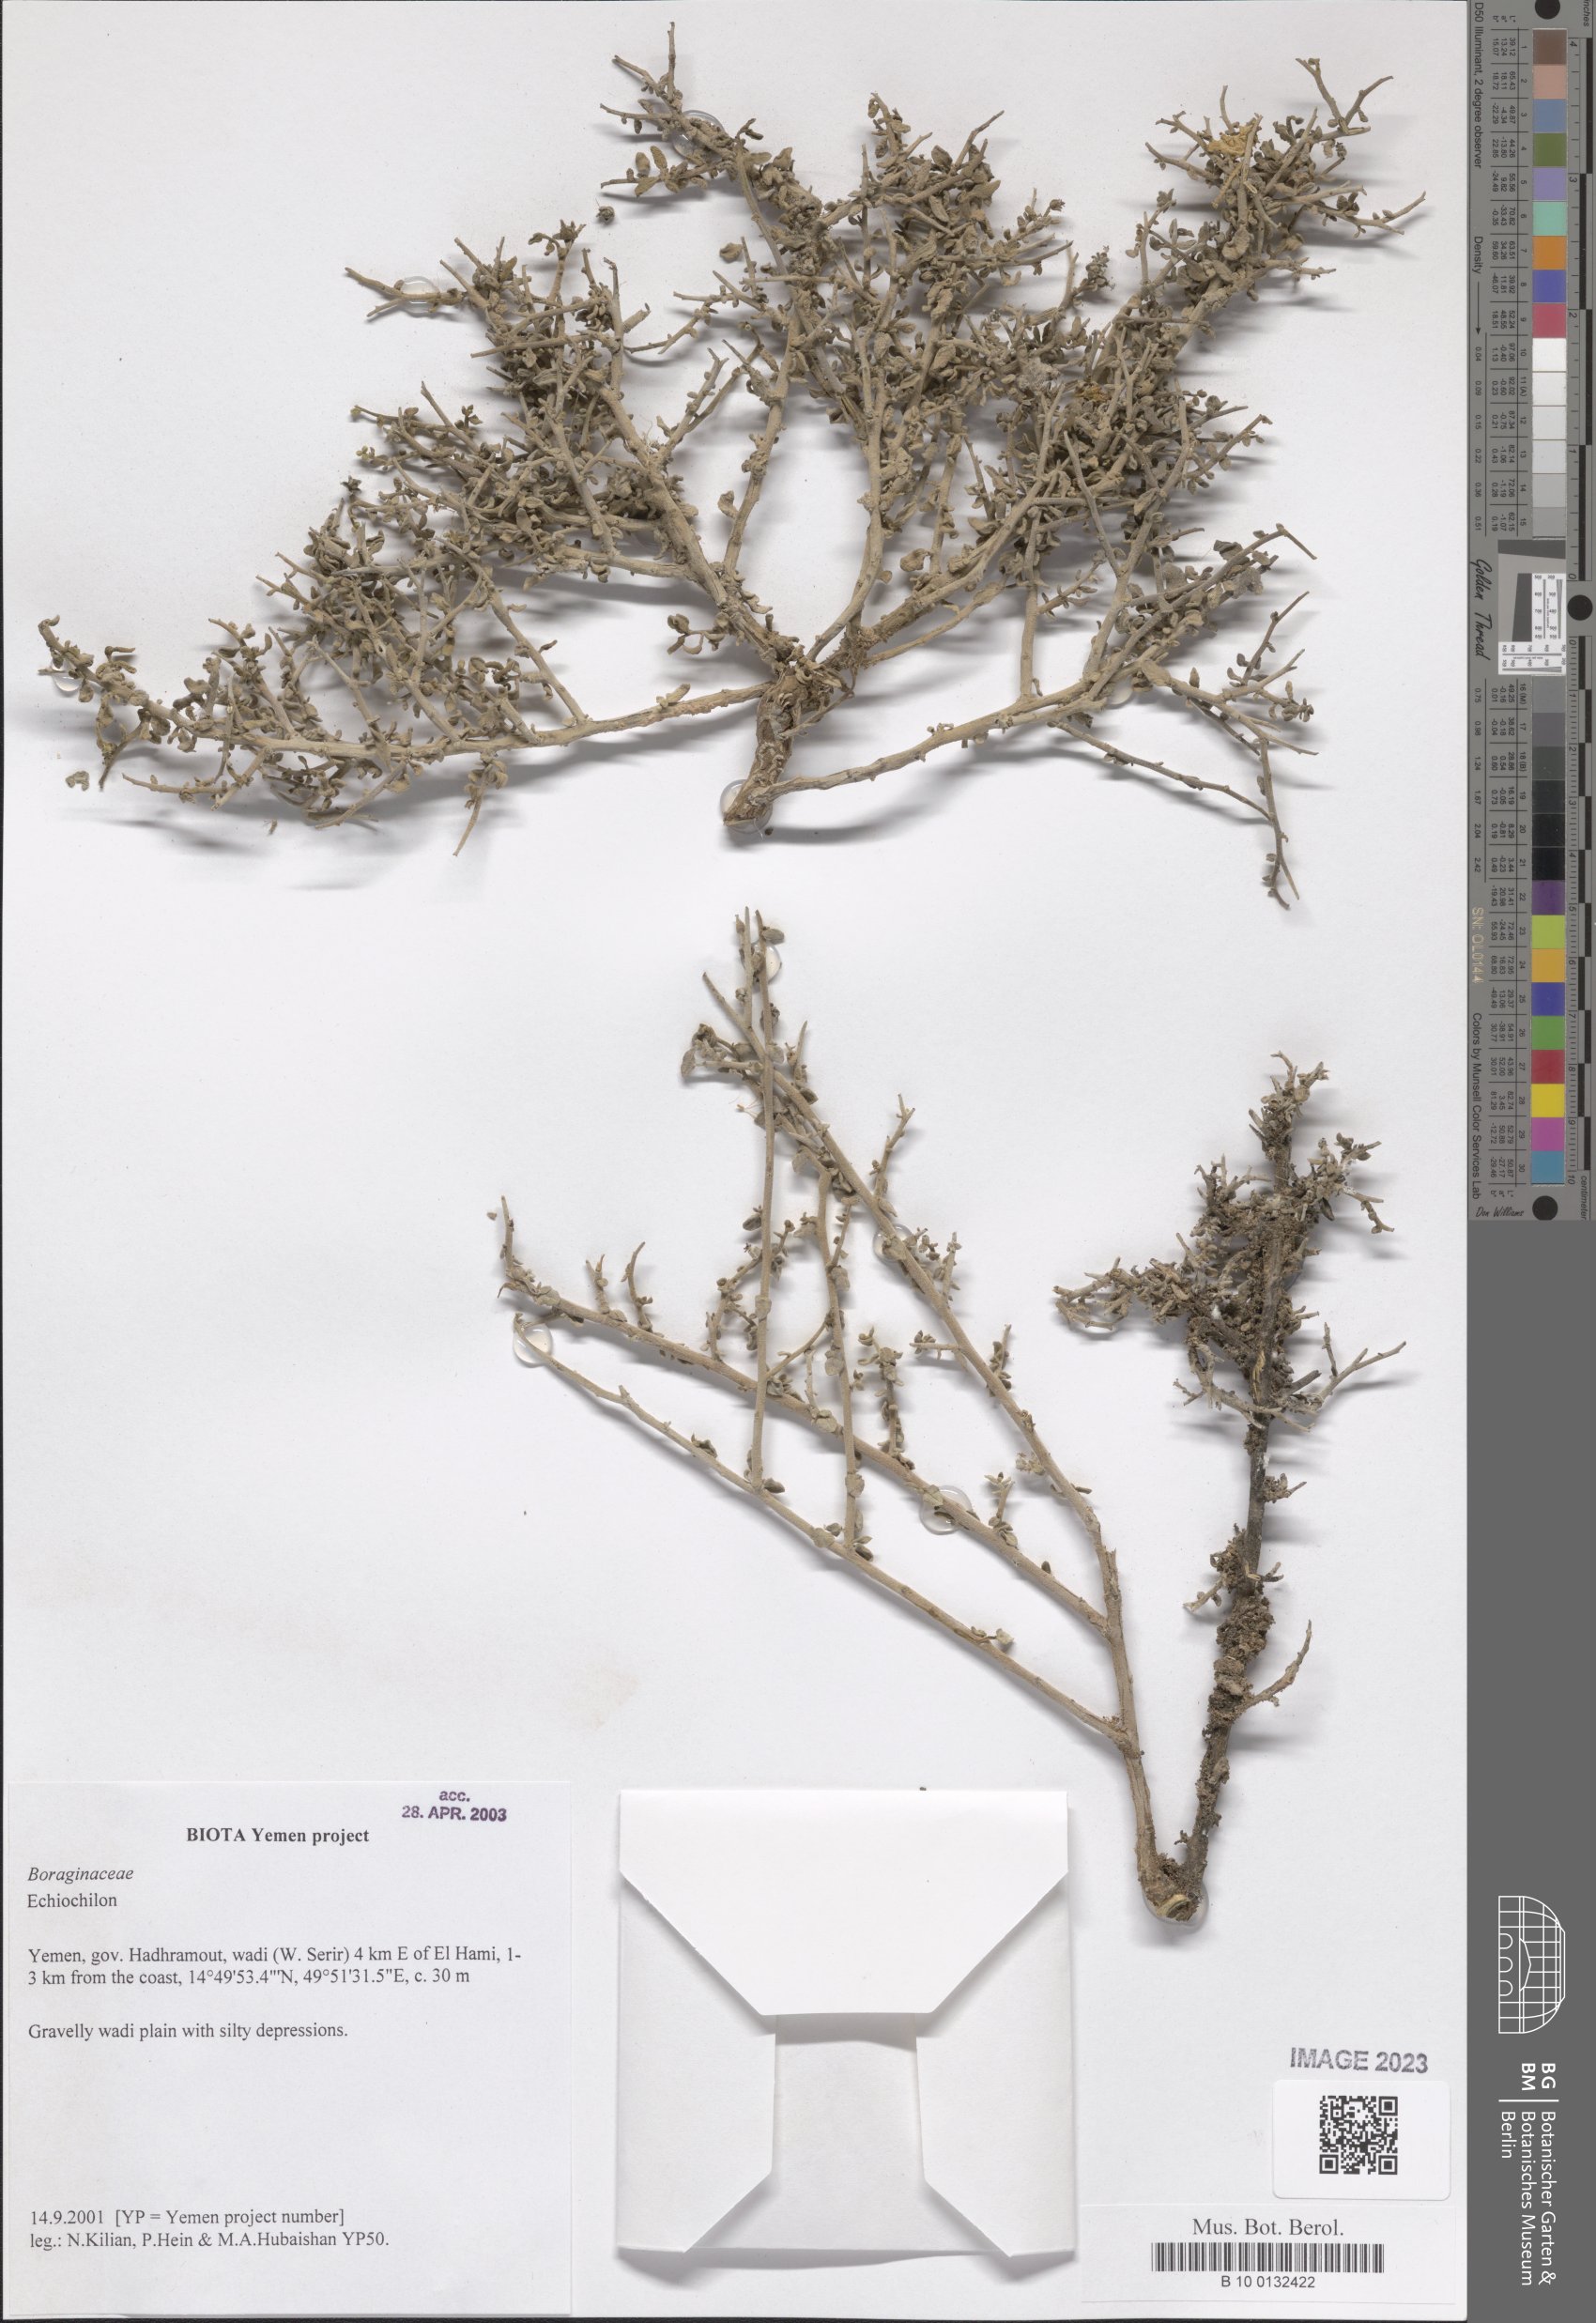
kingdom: Plantae
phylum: Tracheophyta
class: Magnoliopsida
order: Boraginales
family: Boraginaceae
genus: Echiochilon
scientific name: Echiochilon
